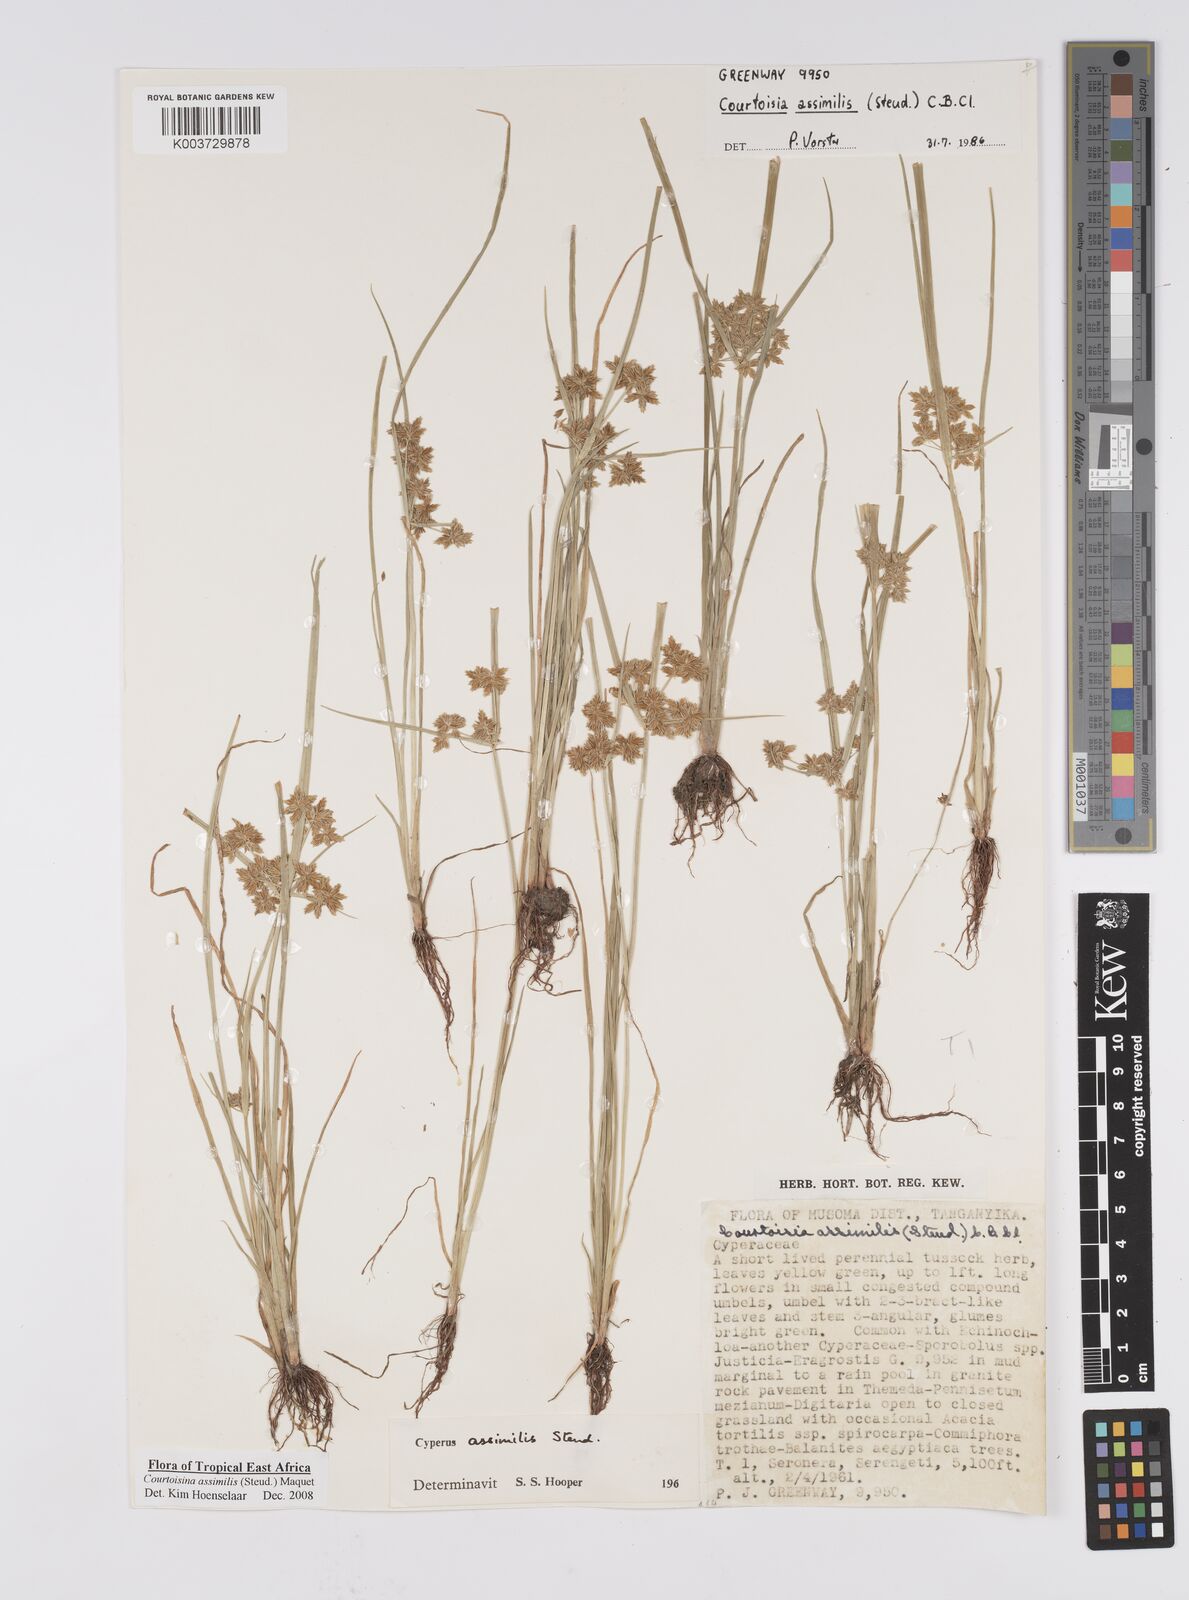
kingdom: Plantae
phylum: Tracheophyta
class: Liliopsida
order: Poales
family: Cyperaceae
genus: Cyperus
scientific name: Cyperus assimilis
